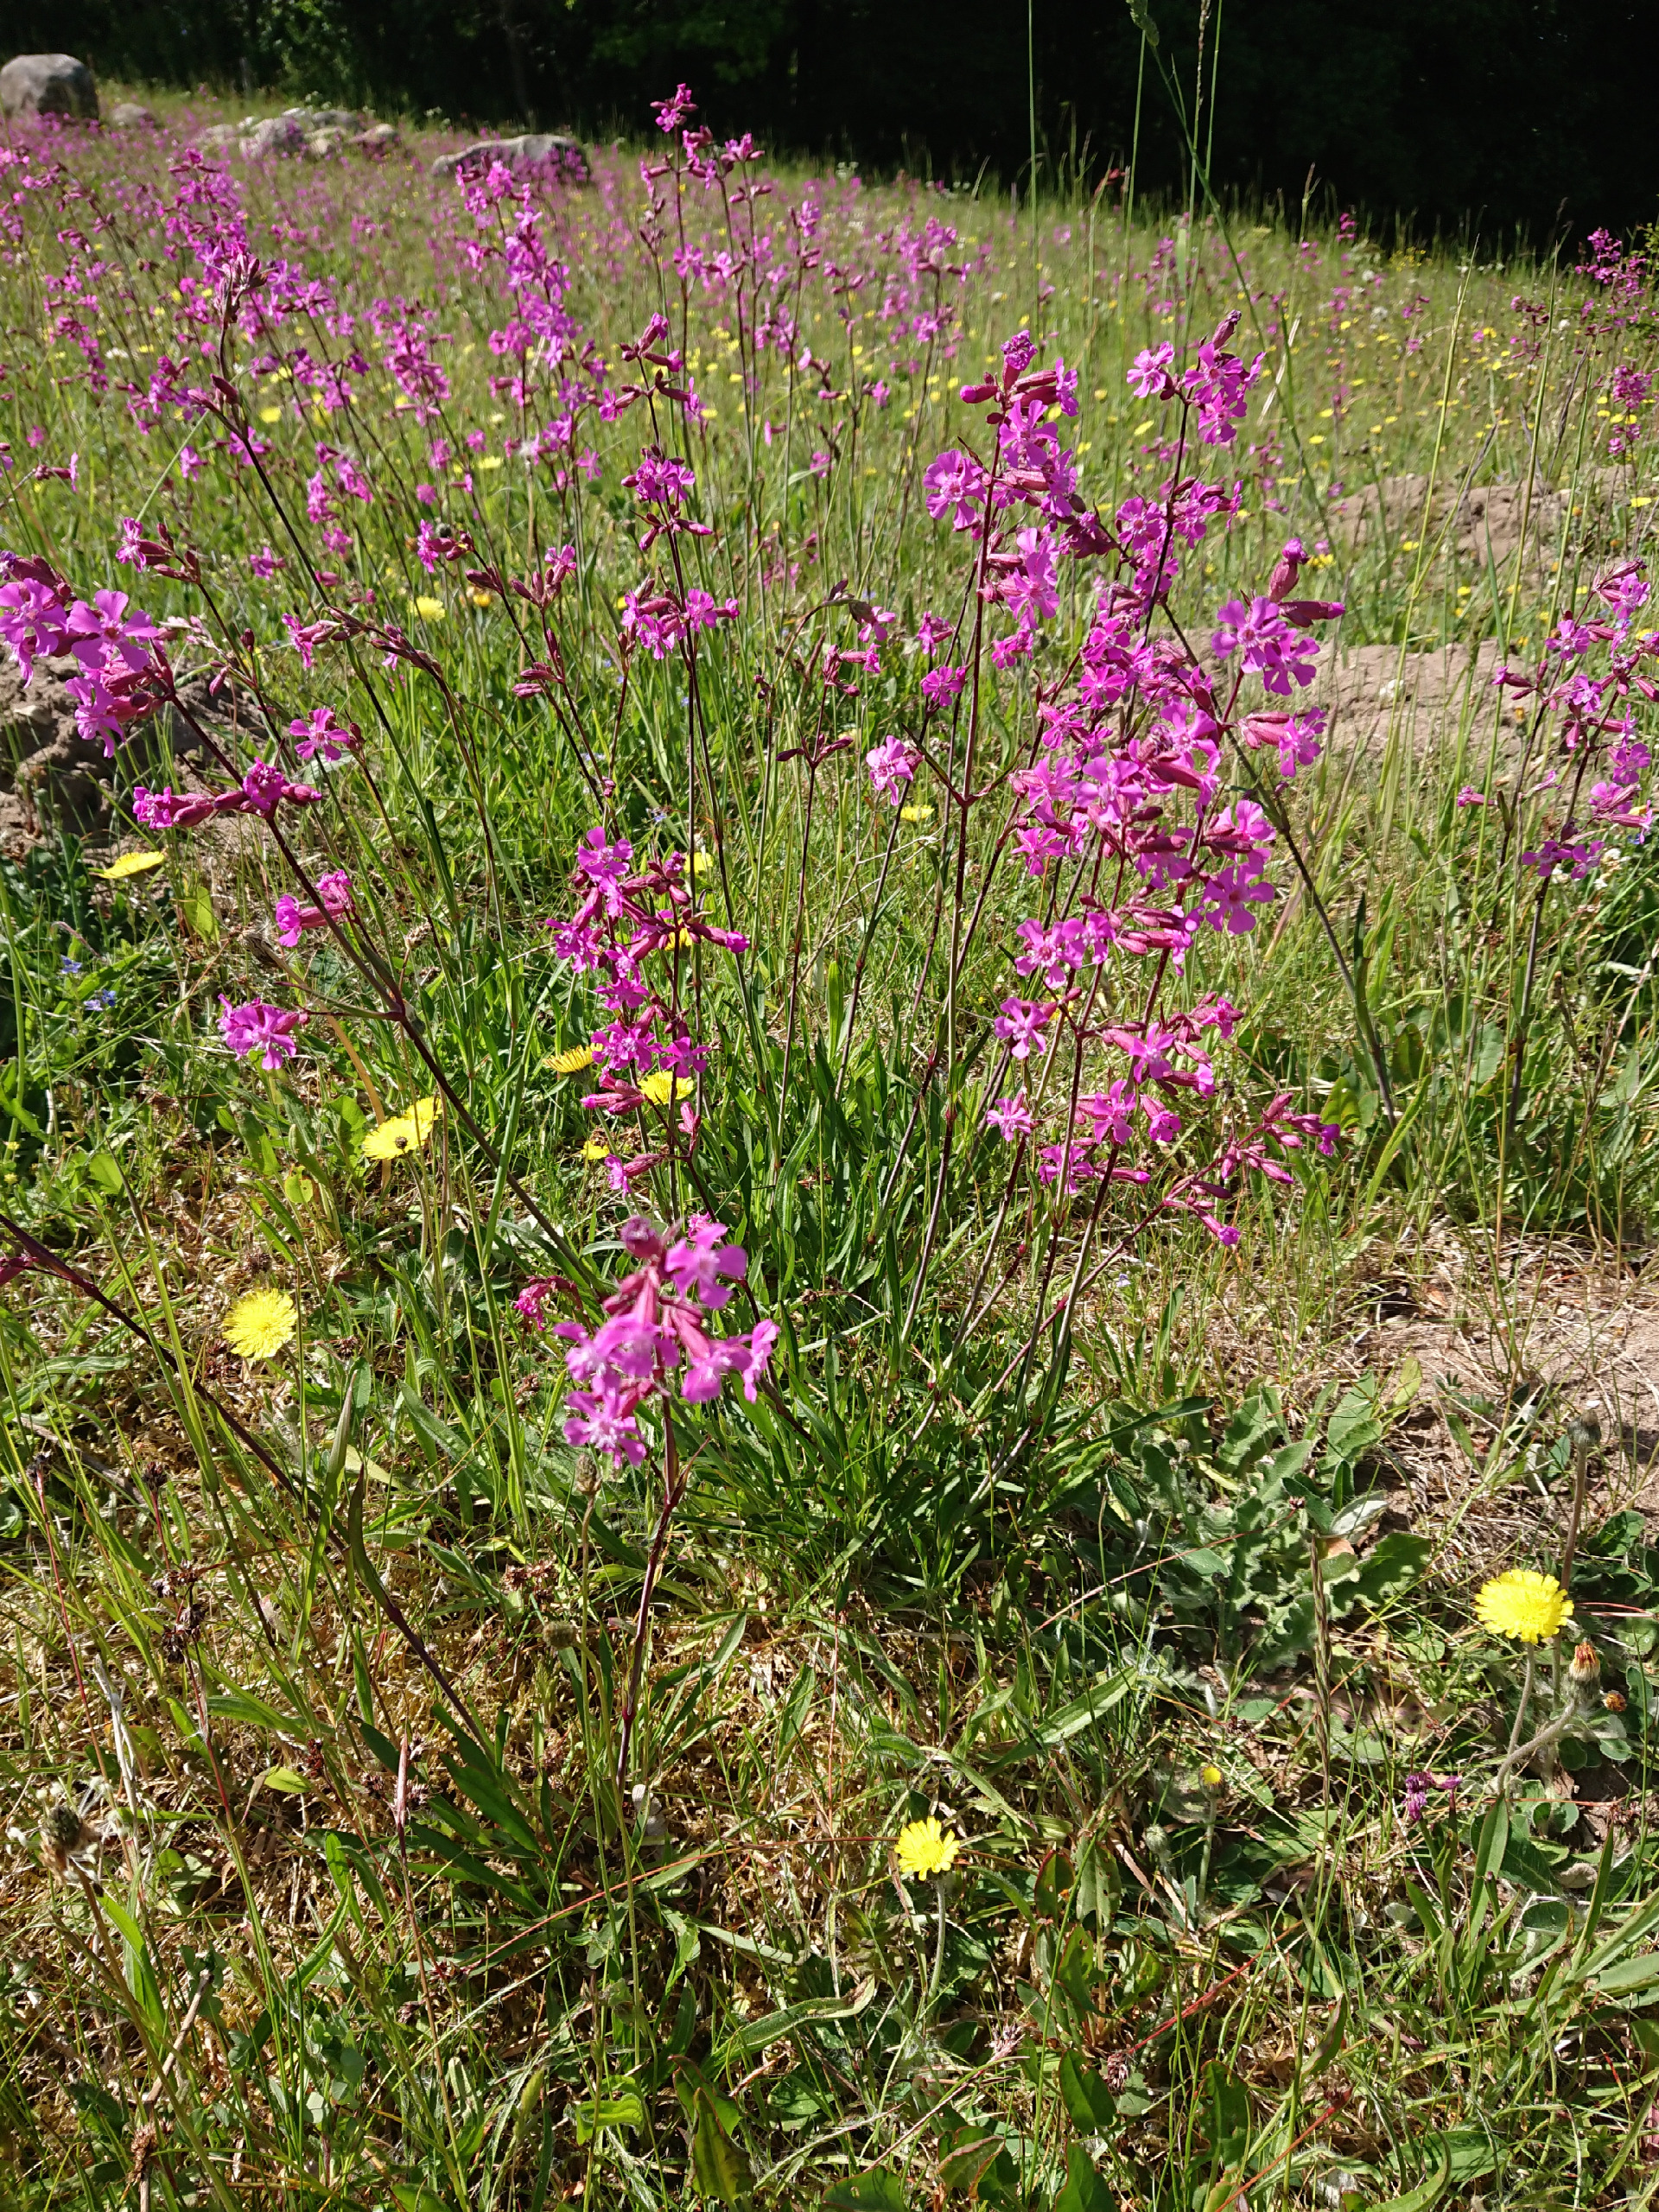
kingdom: Plantae
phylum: Tracheophyta
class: Magnoliopsida
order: Caryophyllales
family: Caryophyllaceae
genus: Viscaria
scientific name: Viscaria vulgaris
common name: Tjærenellike
